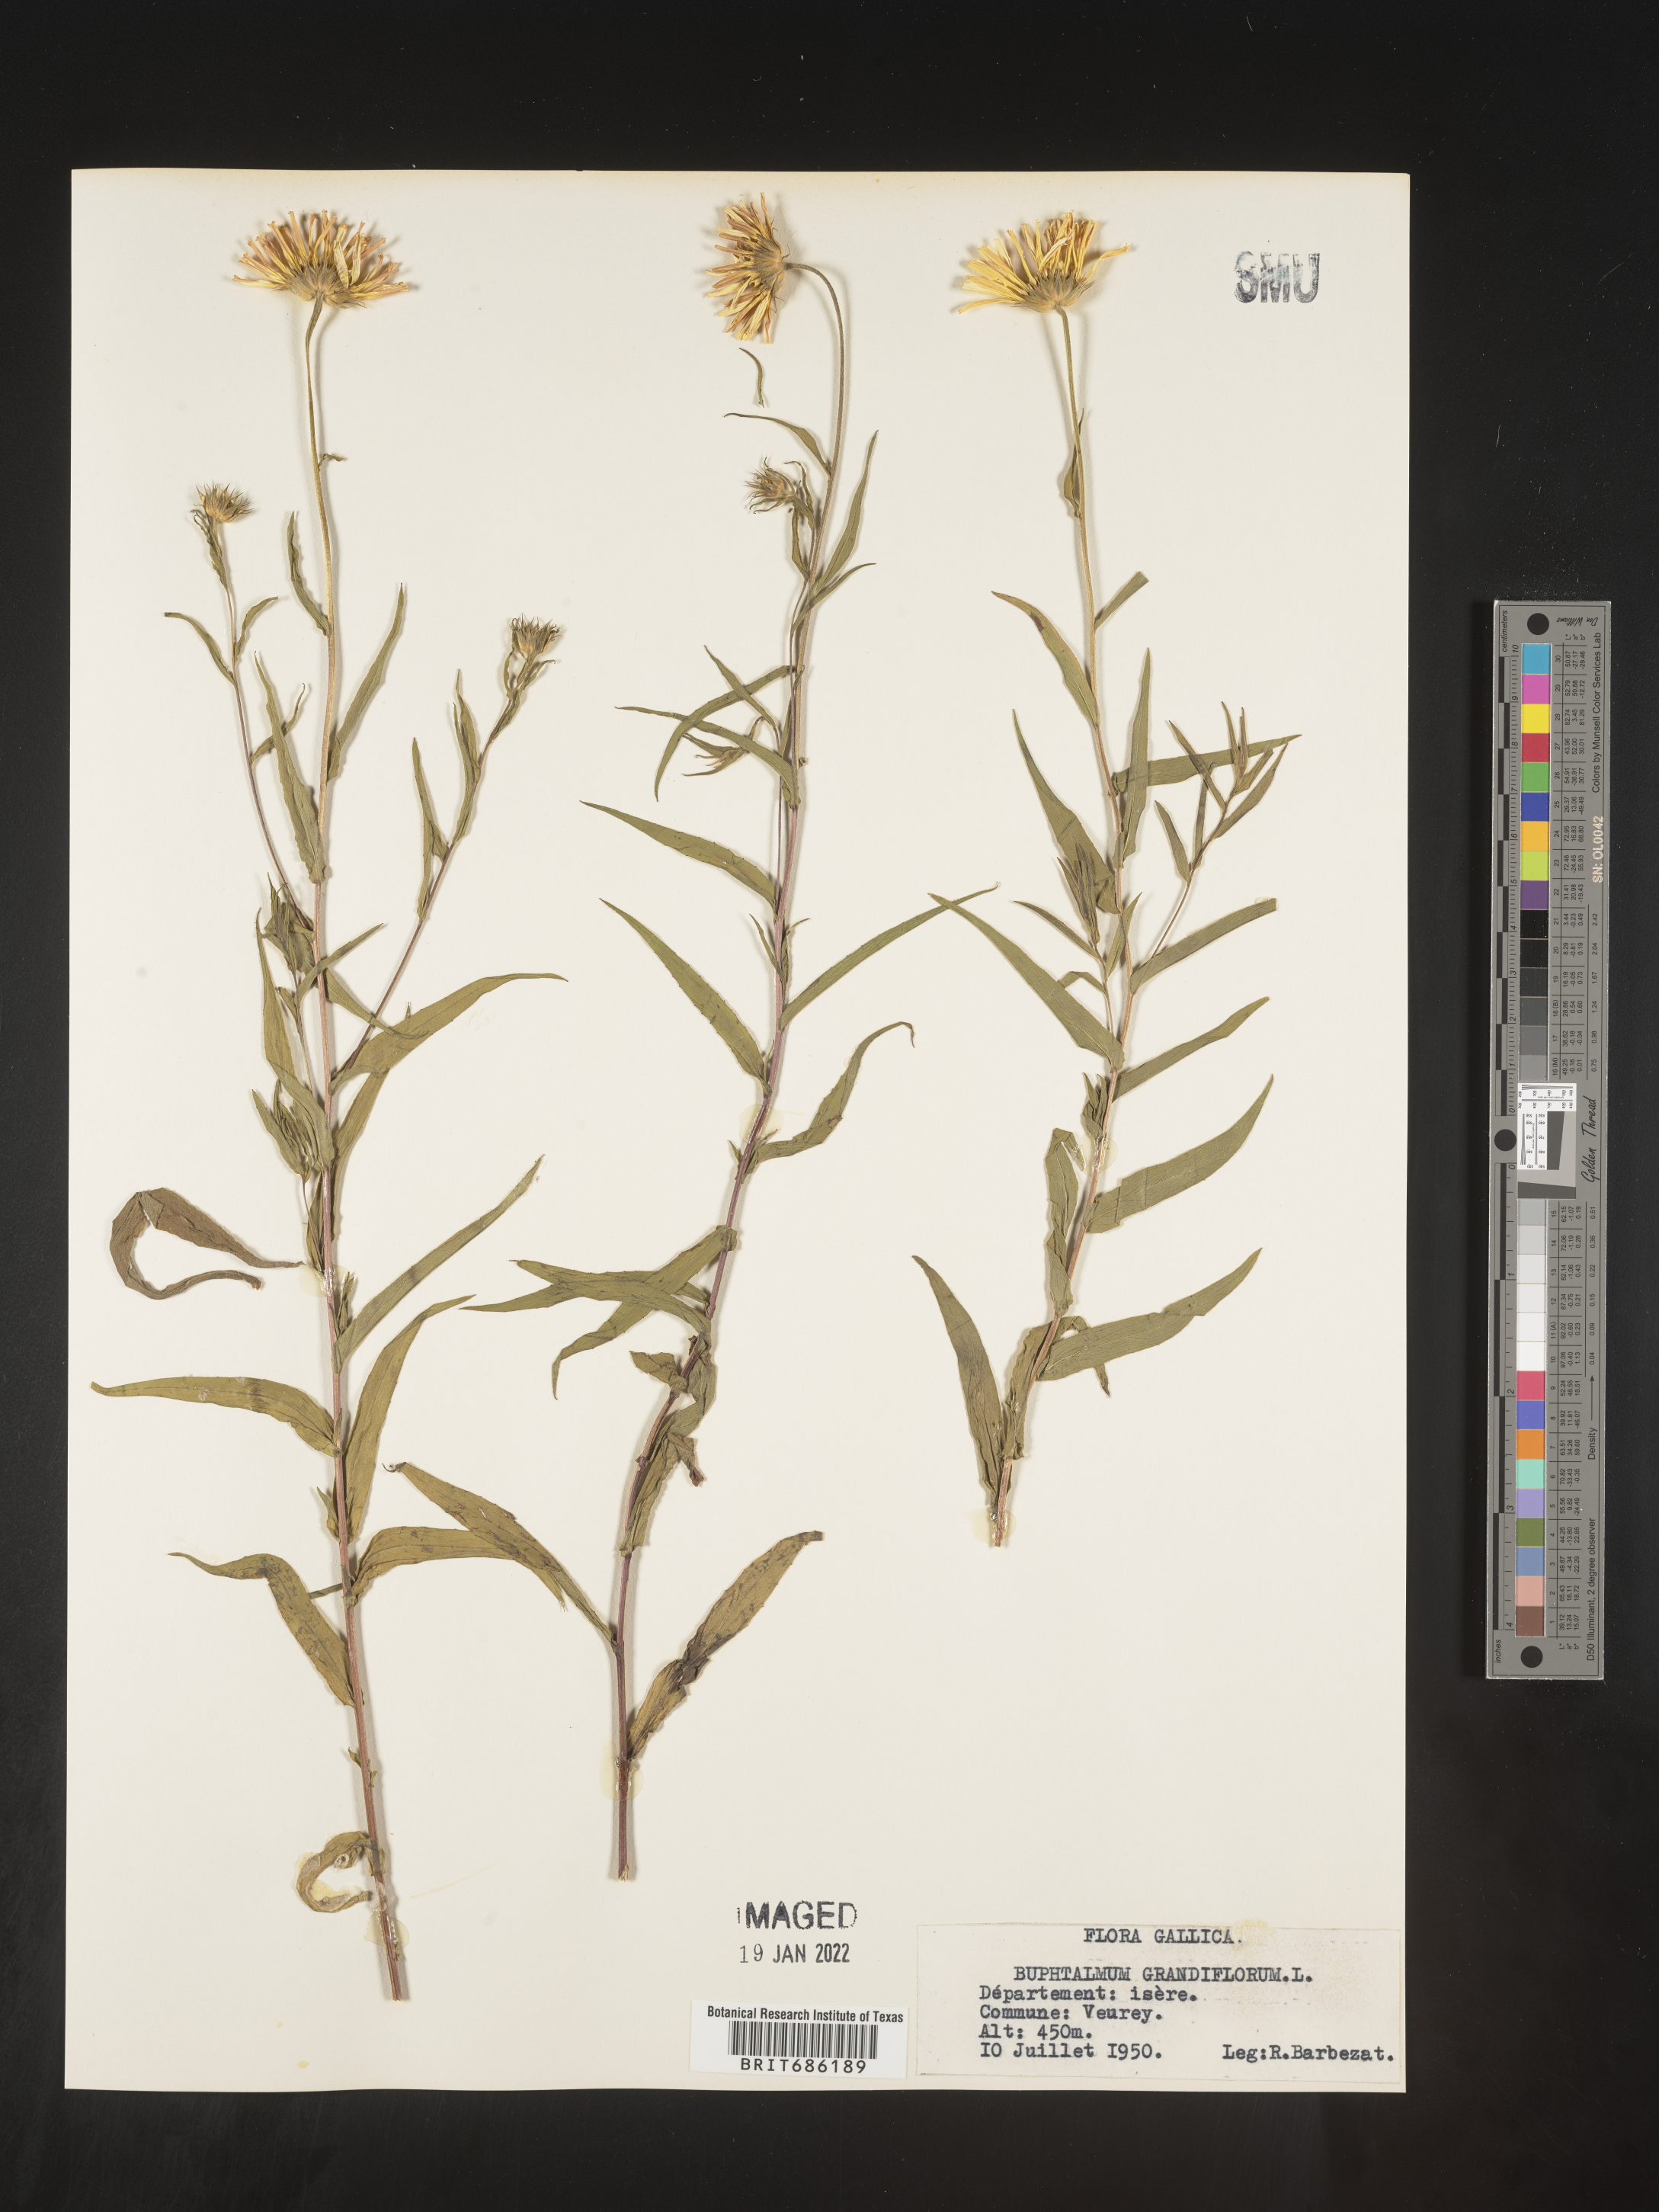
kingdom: Plantae
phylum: Tracheophyta
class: Magnoliopsida
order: Asterales
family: Asteraceae
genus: Buphthalmum
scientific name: Buphthalmum
